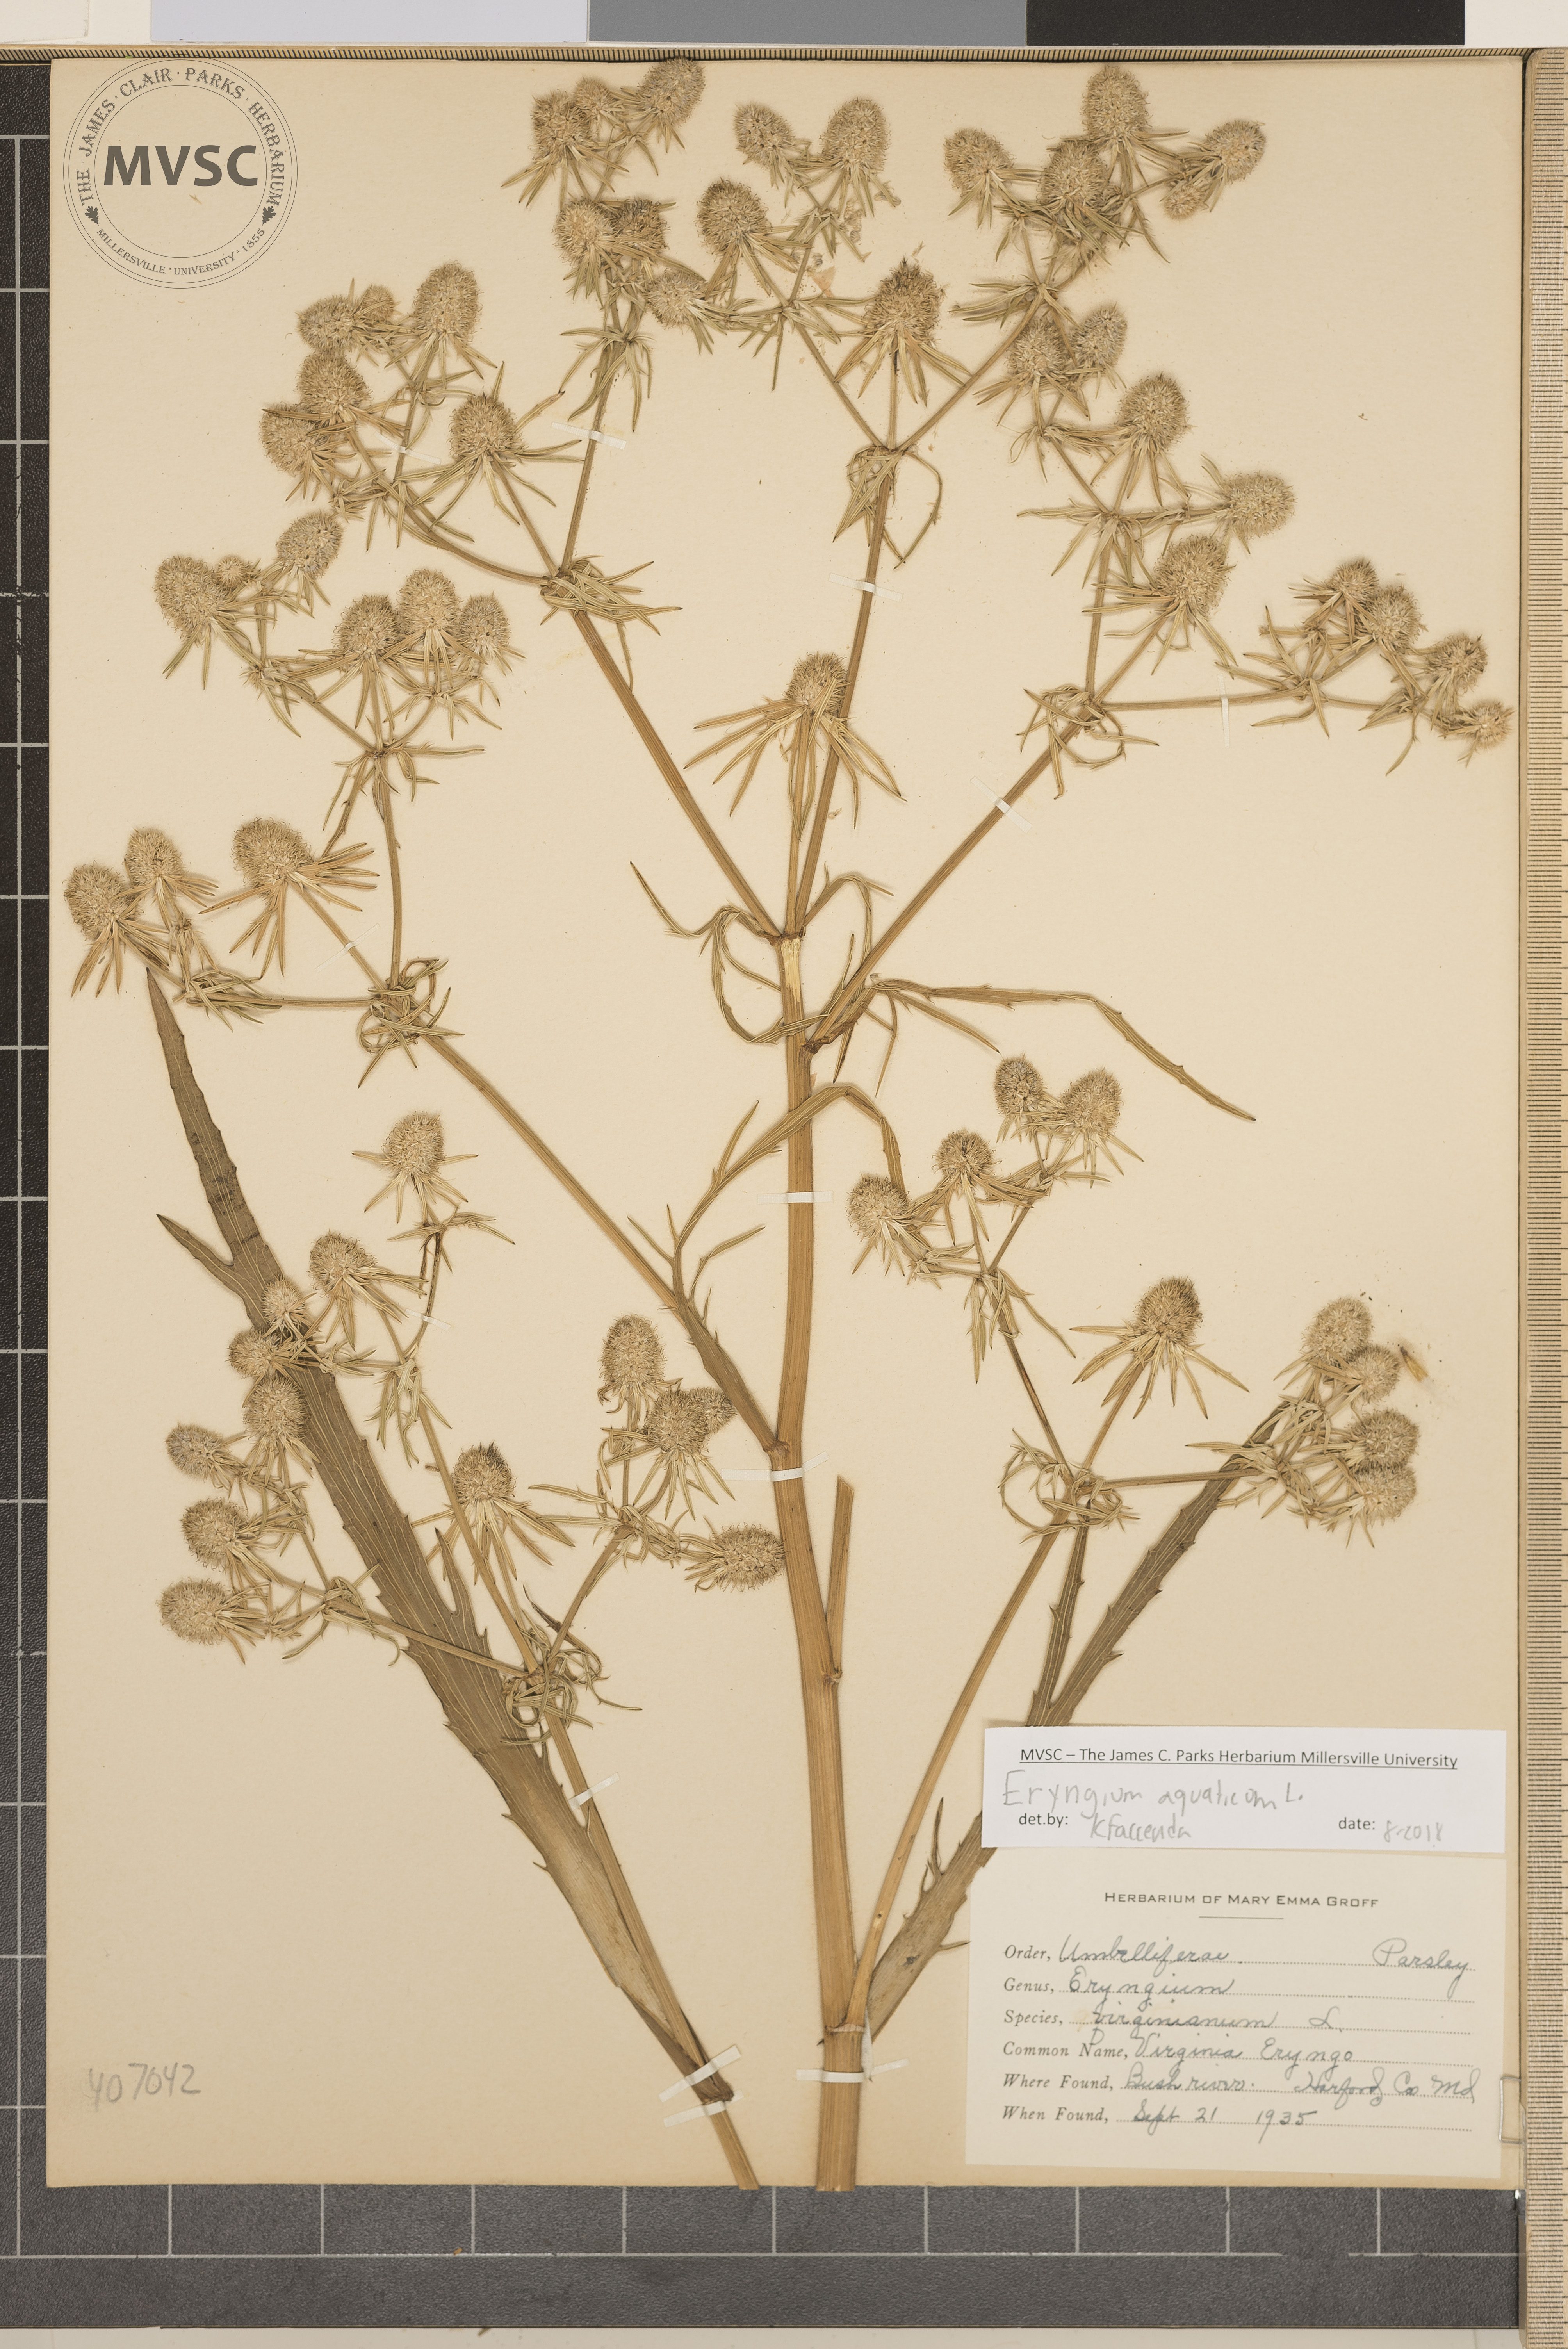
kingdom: Plantae
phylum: Tracheophyta
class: Magnoliopsida
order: Apiales
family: Apiaceae
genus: Eryngium
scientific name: Eryngium aquaticum
